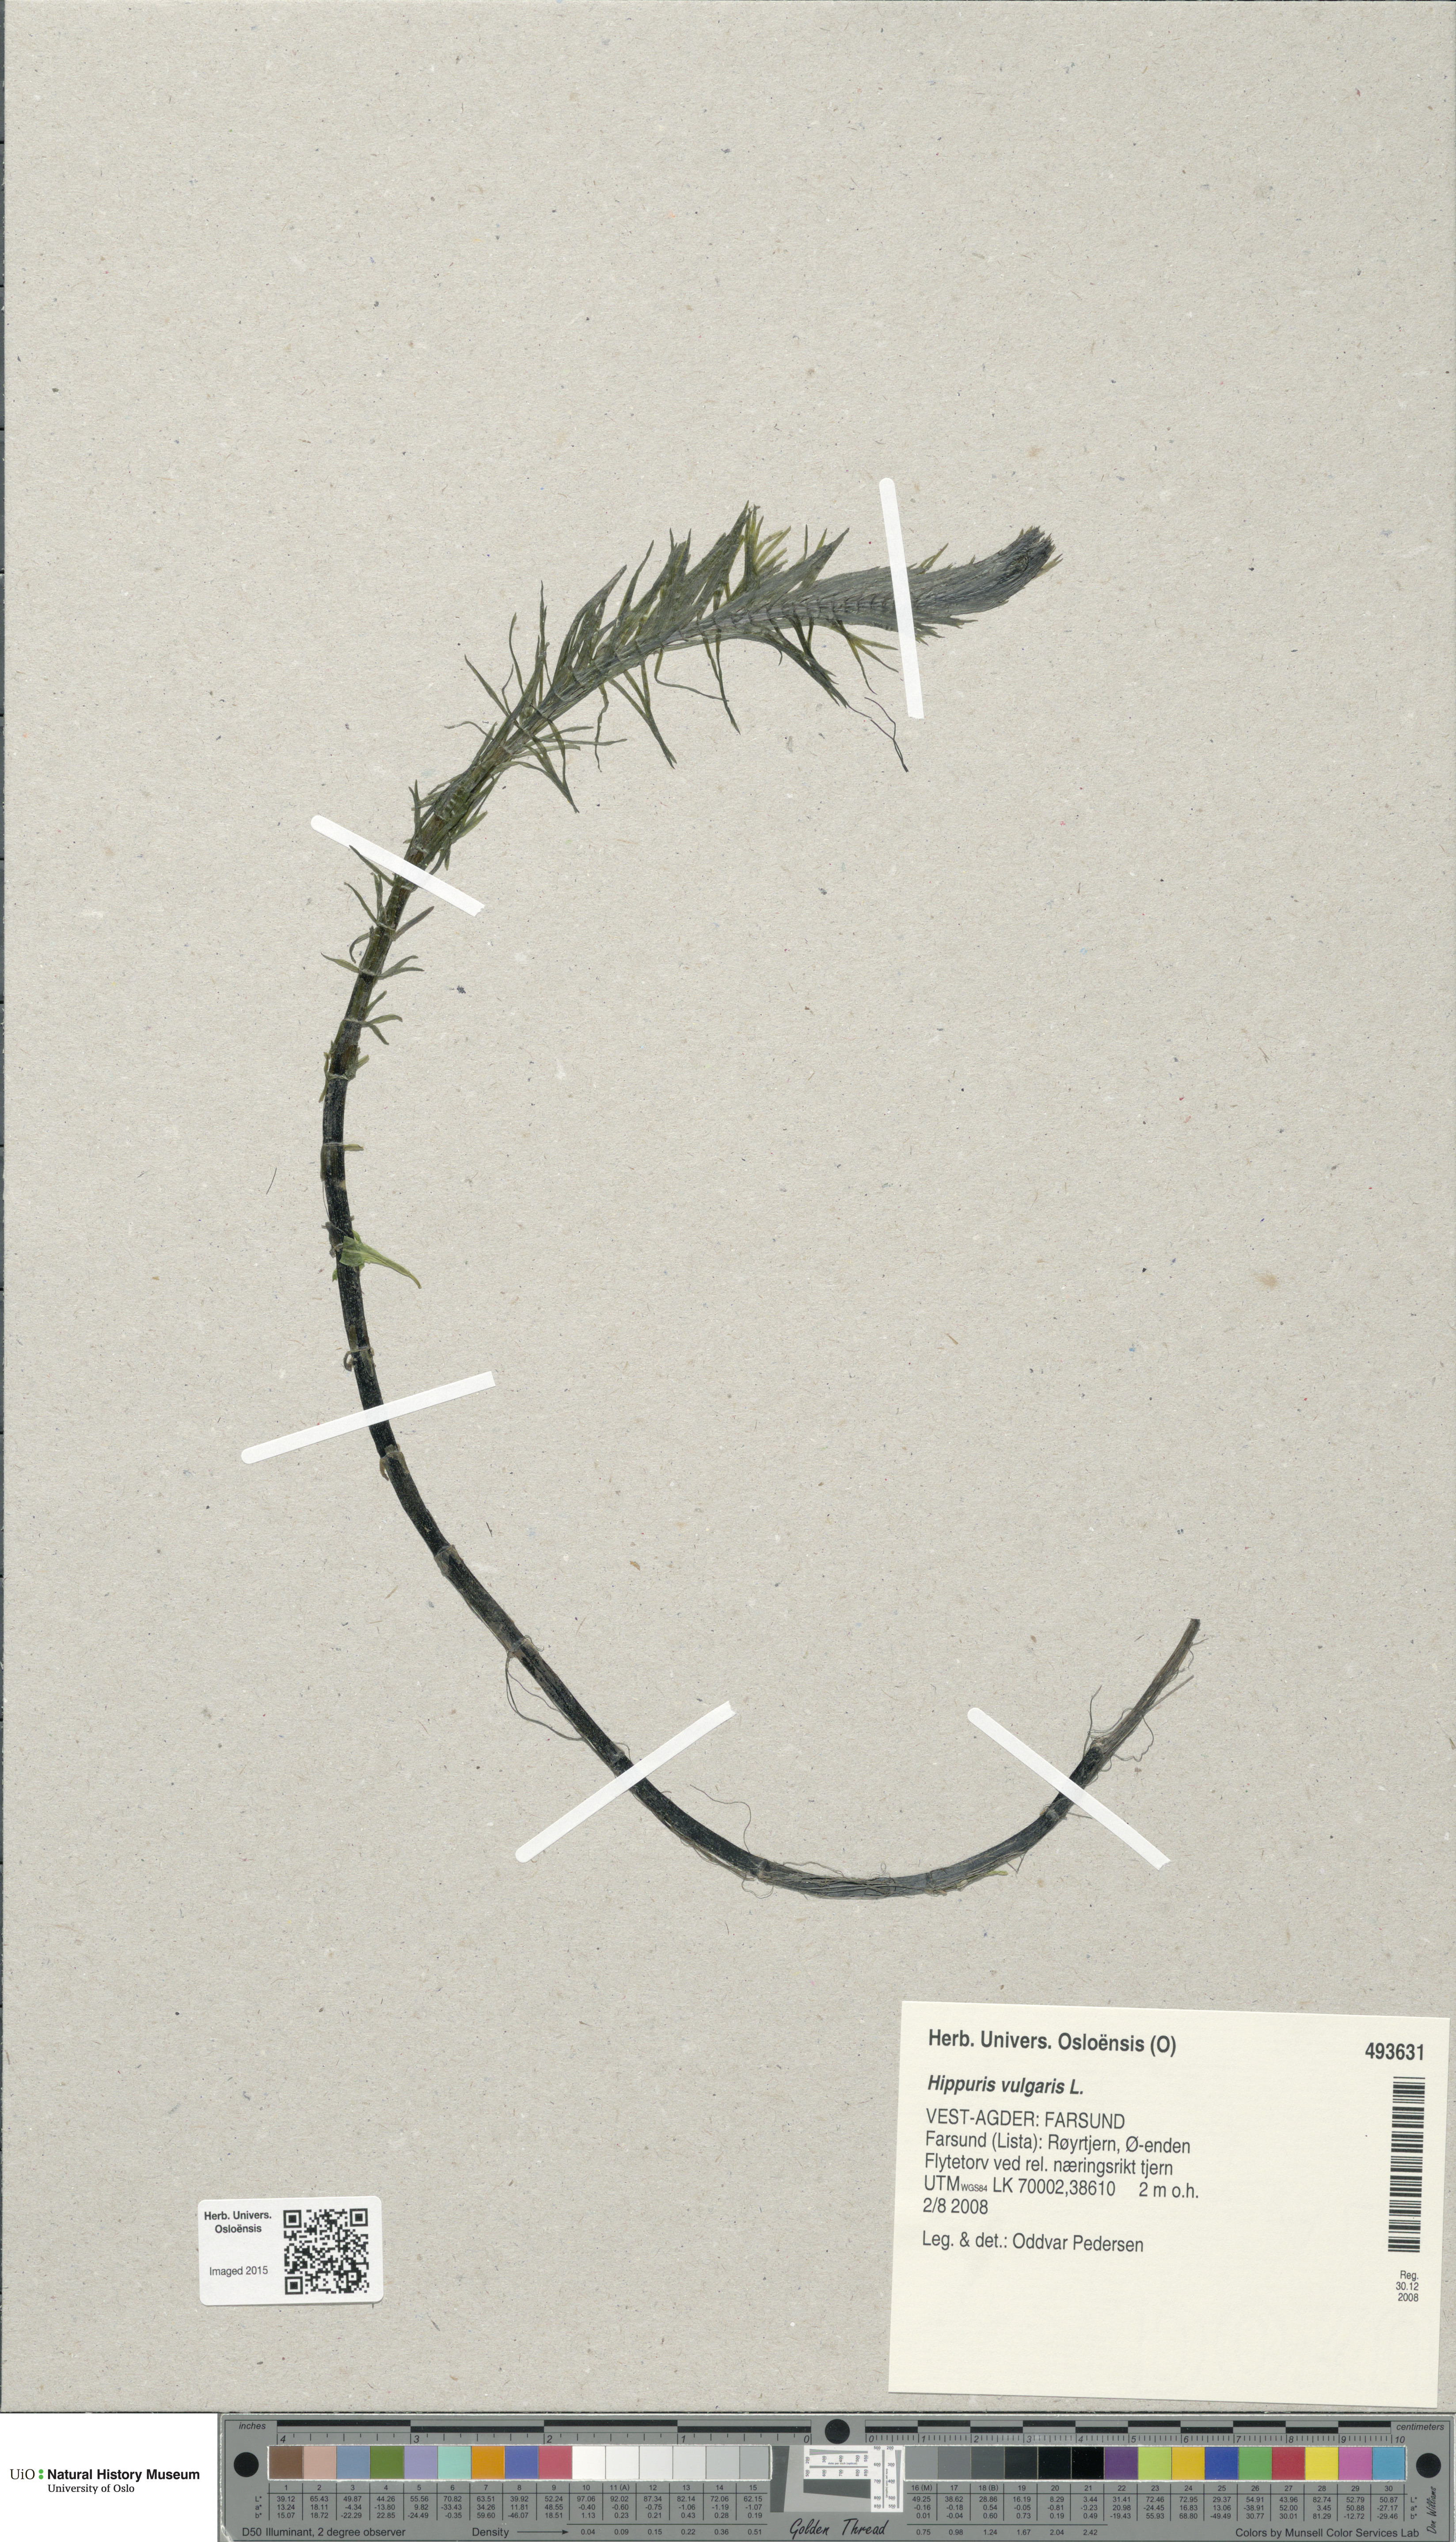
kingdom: Plantae
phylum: Tracheophyta
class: Magnoliopsida
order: Lamiales
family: Plantaginaceae
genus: Hippuris
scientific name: Hippuris vulgaris
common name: Mare's-tail
